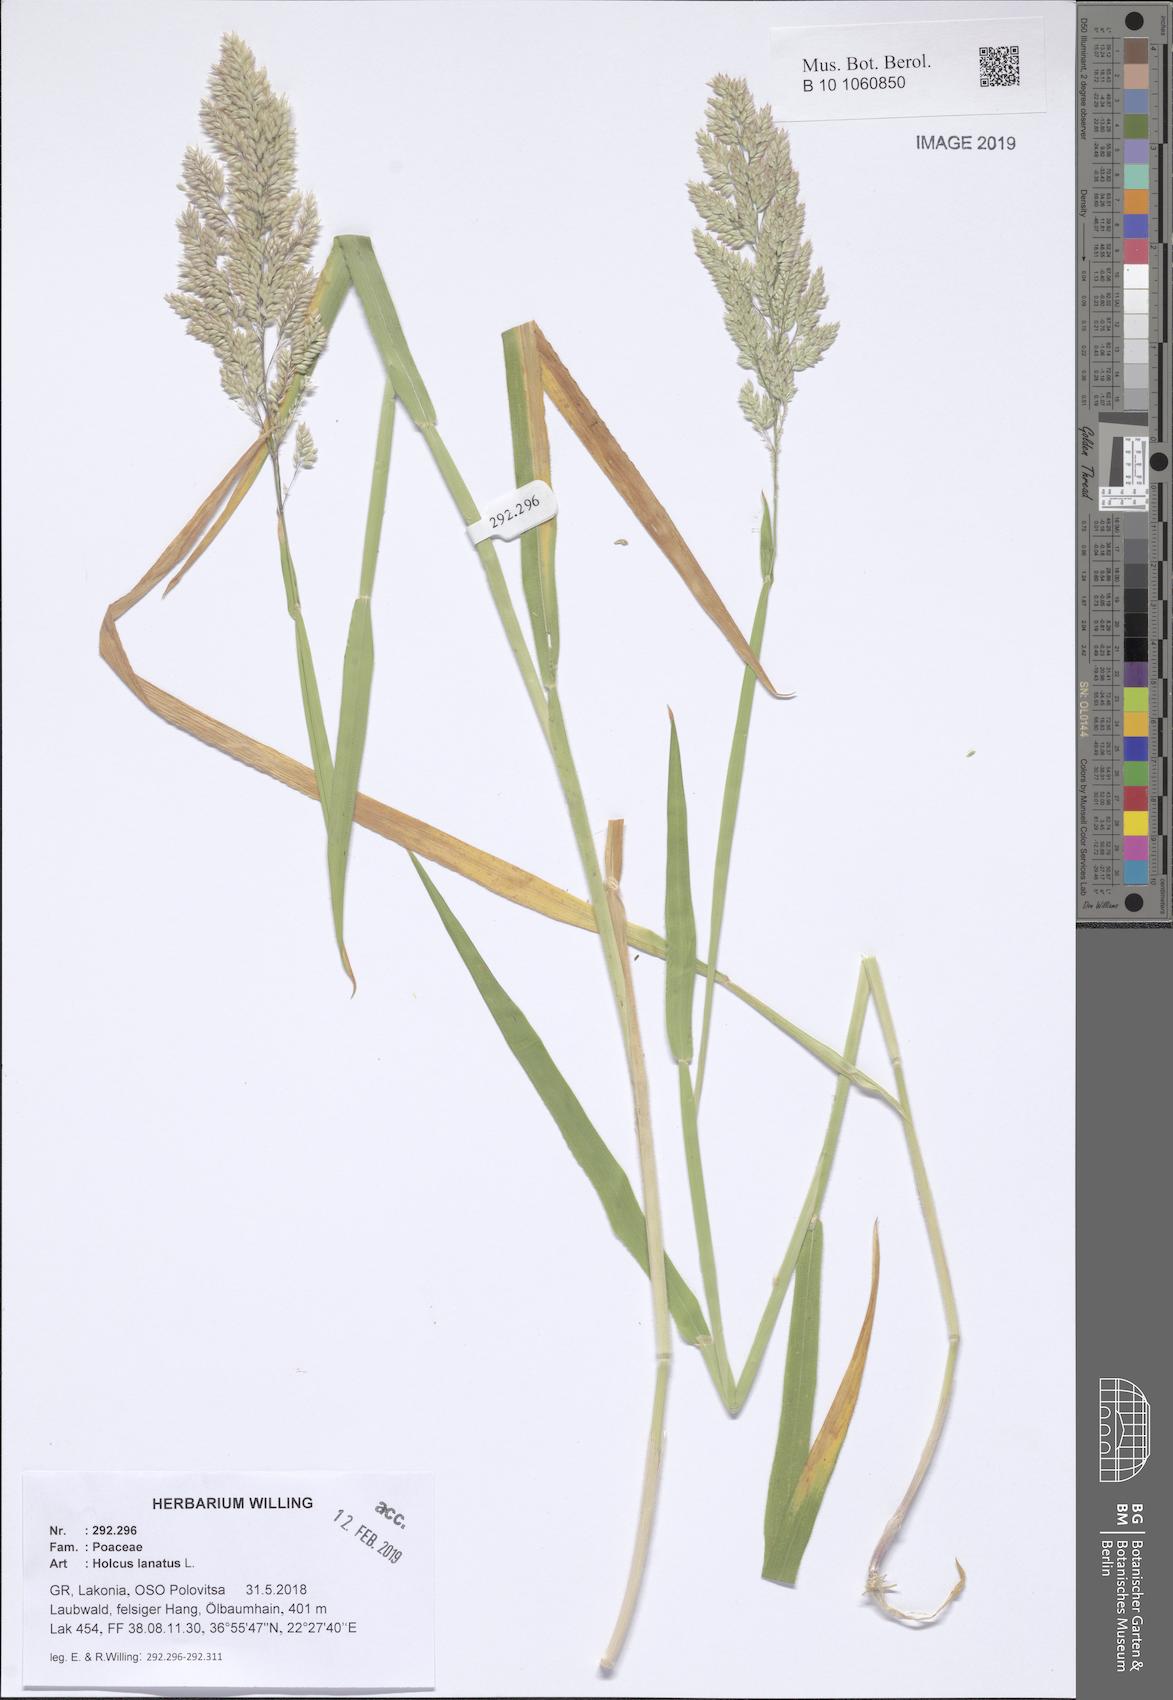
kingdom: Plantae
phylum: Tracheophyta
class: Liliopsida
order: Poales
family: Poaceae
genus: Holcus
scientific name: Holcus lanatus
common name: Yorkshire-fog
